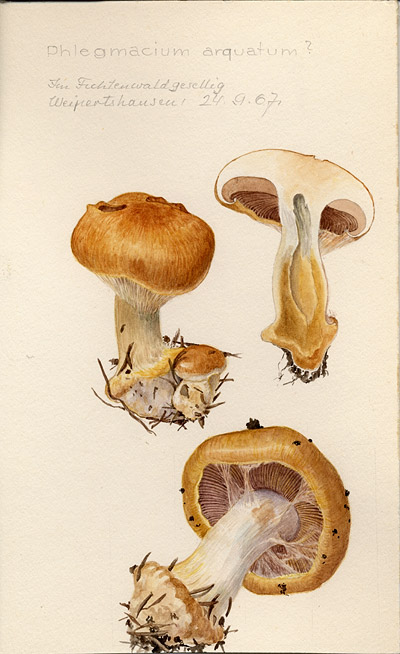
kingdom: Fungi
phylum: Basidiomycota
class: Agaricomycetes
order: Agaricales
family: Cortinariaceae
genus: Cortinarius
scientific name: Cortinarius arquatus
